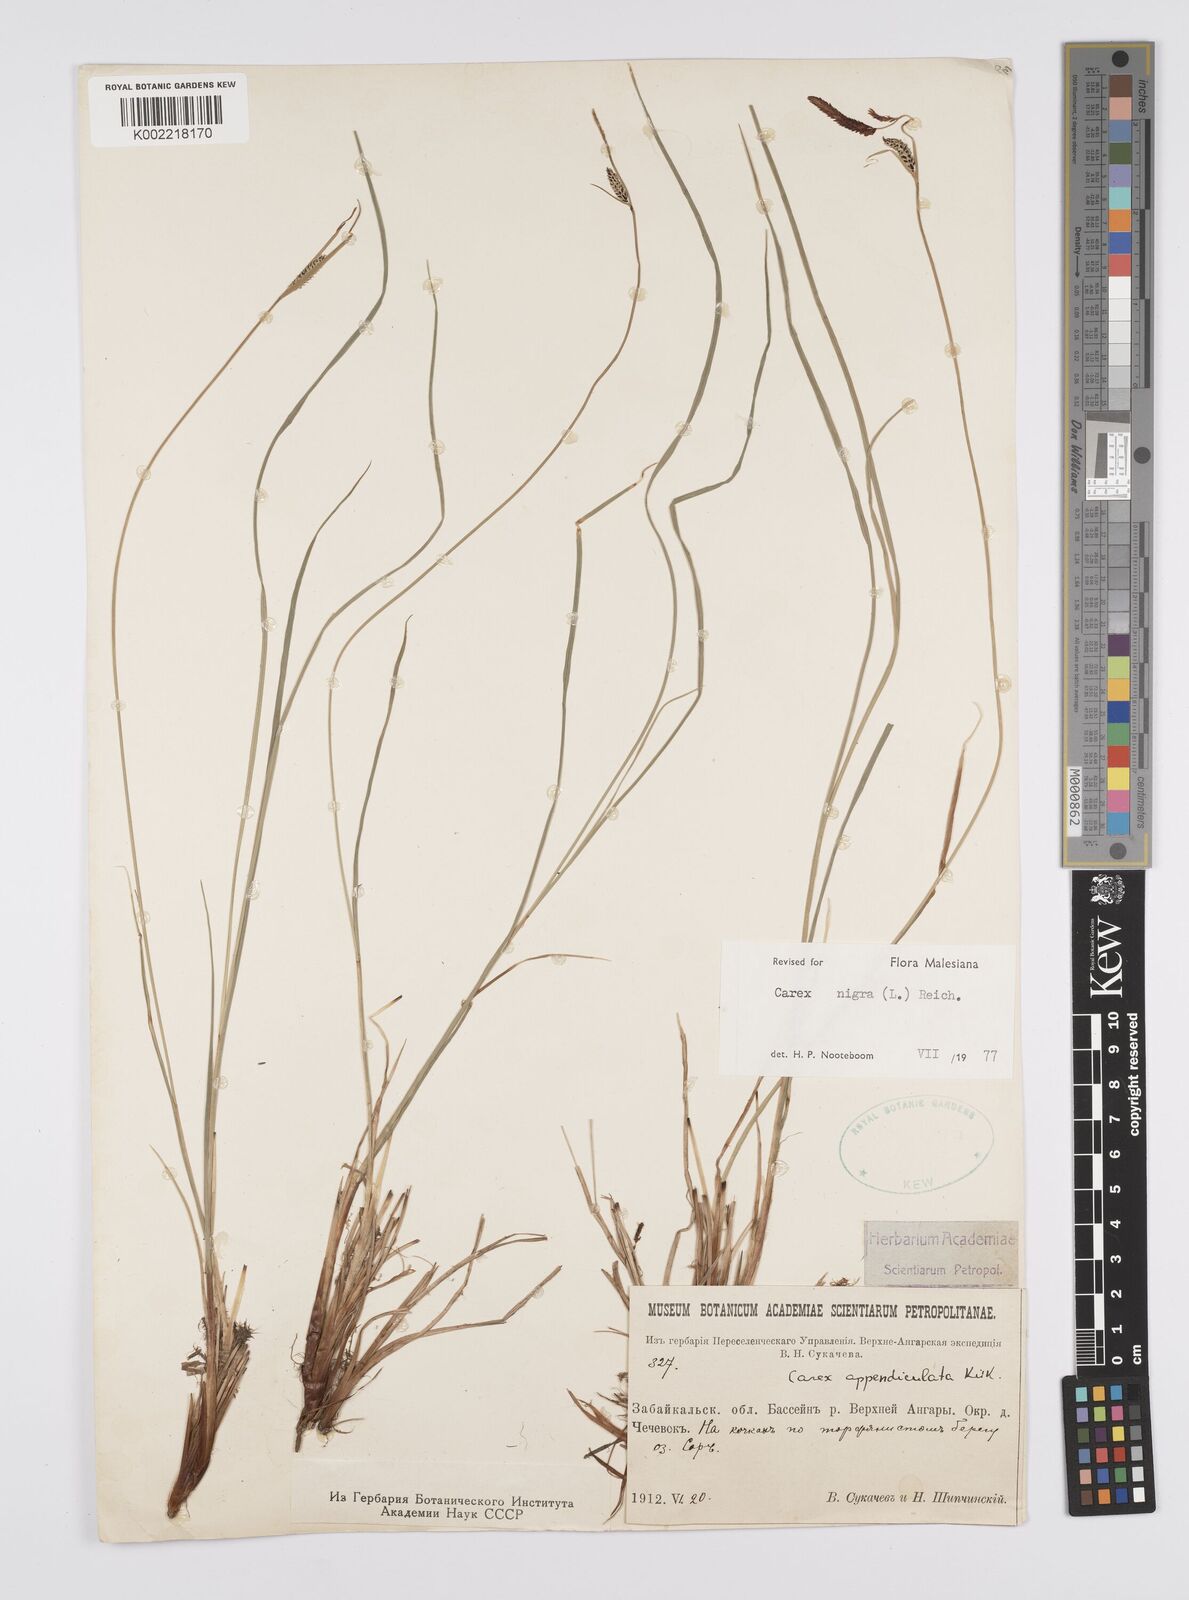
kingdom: Plantae
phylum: Tracheophyta
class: Liliopsida
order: Poales
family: Cyperaceae
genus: Carex
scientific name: Carex nigra
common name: Common sedge
